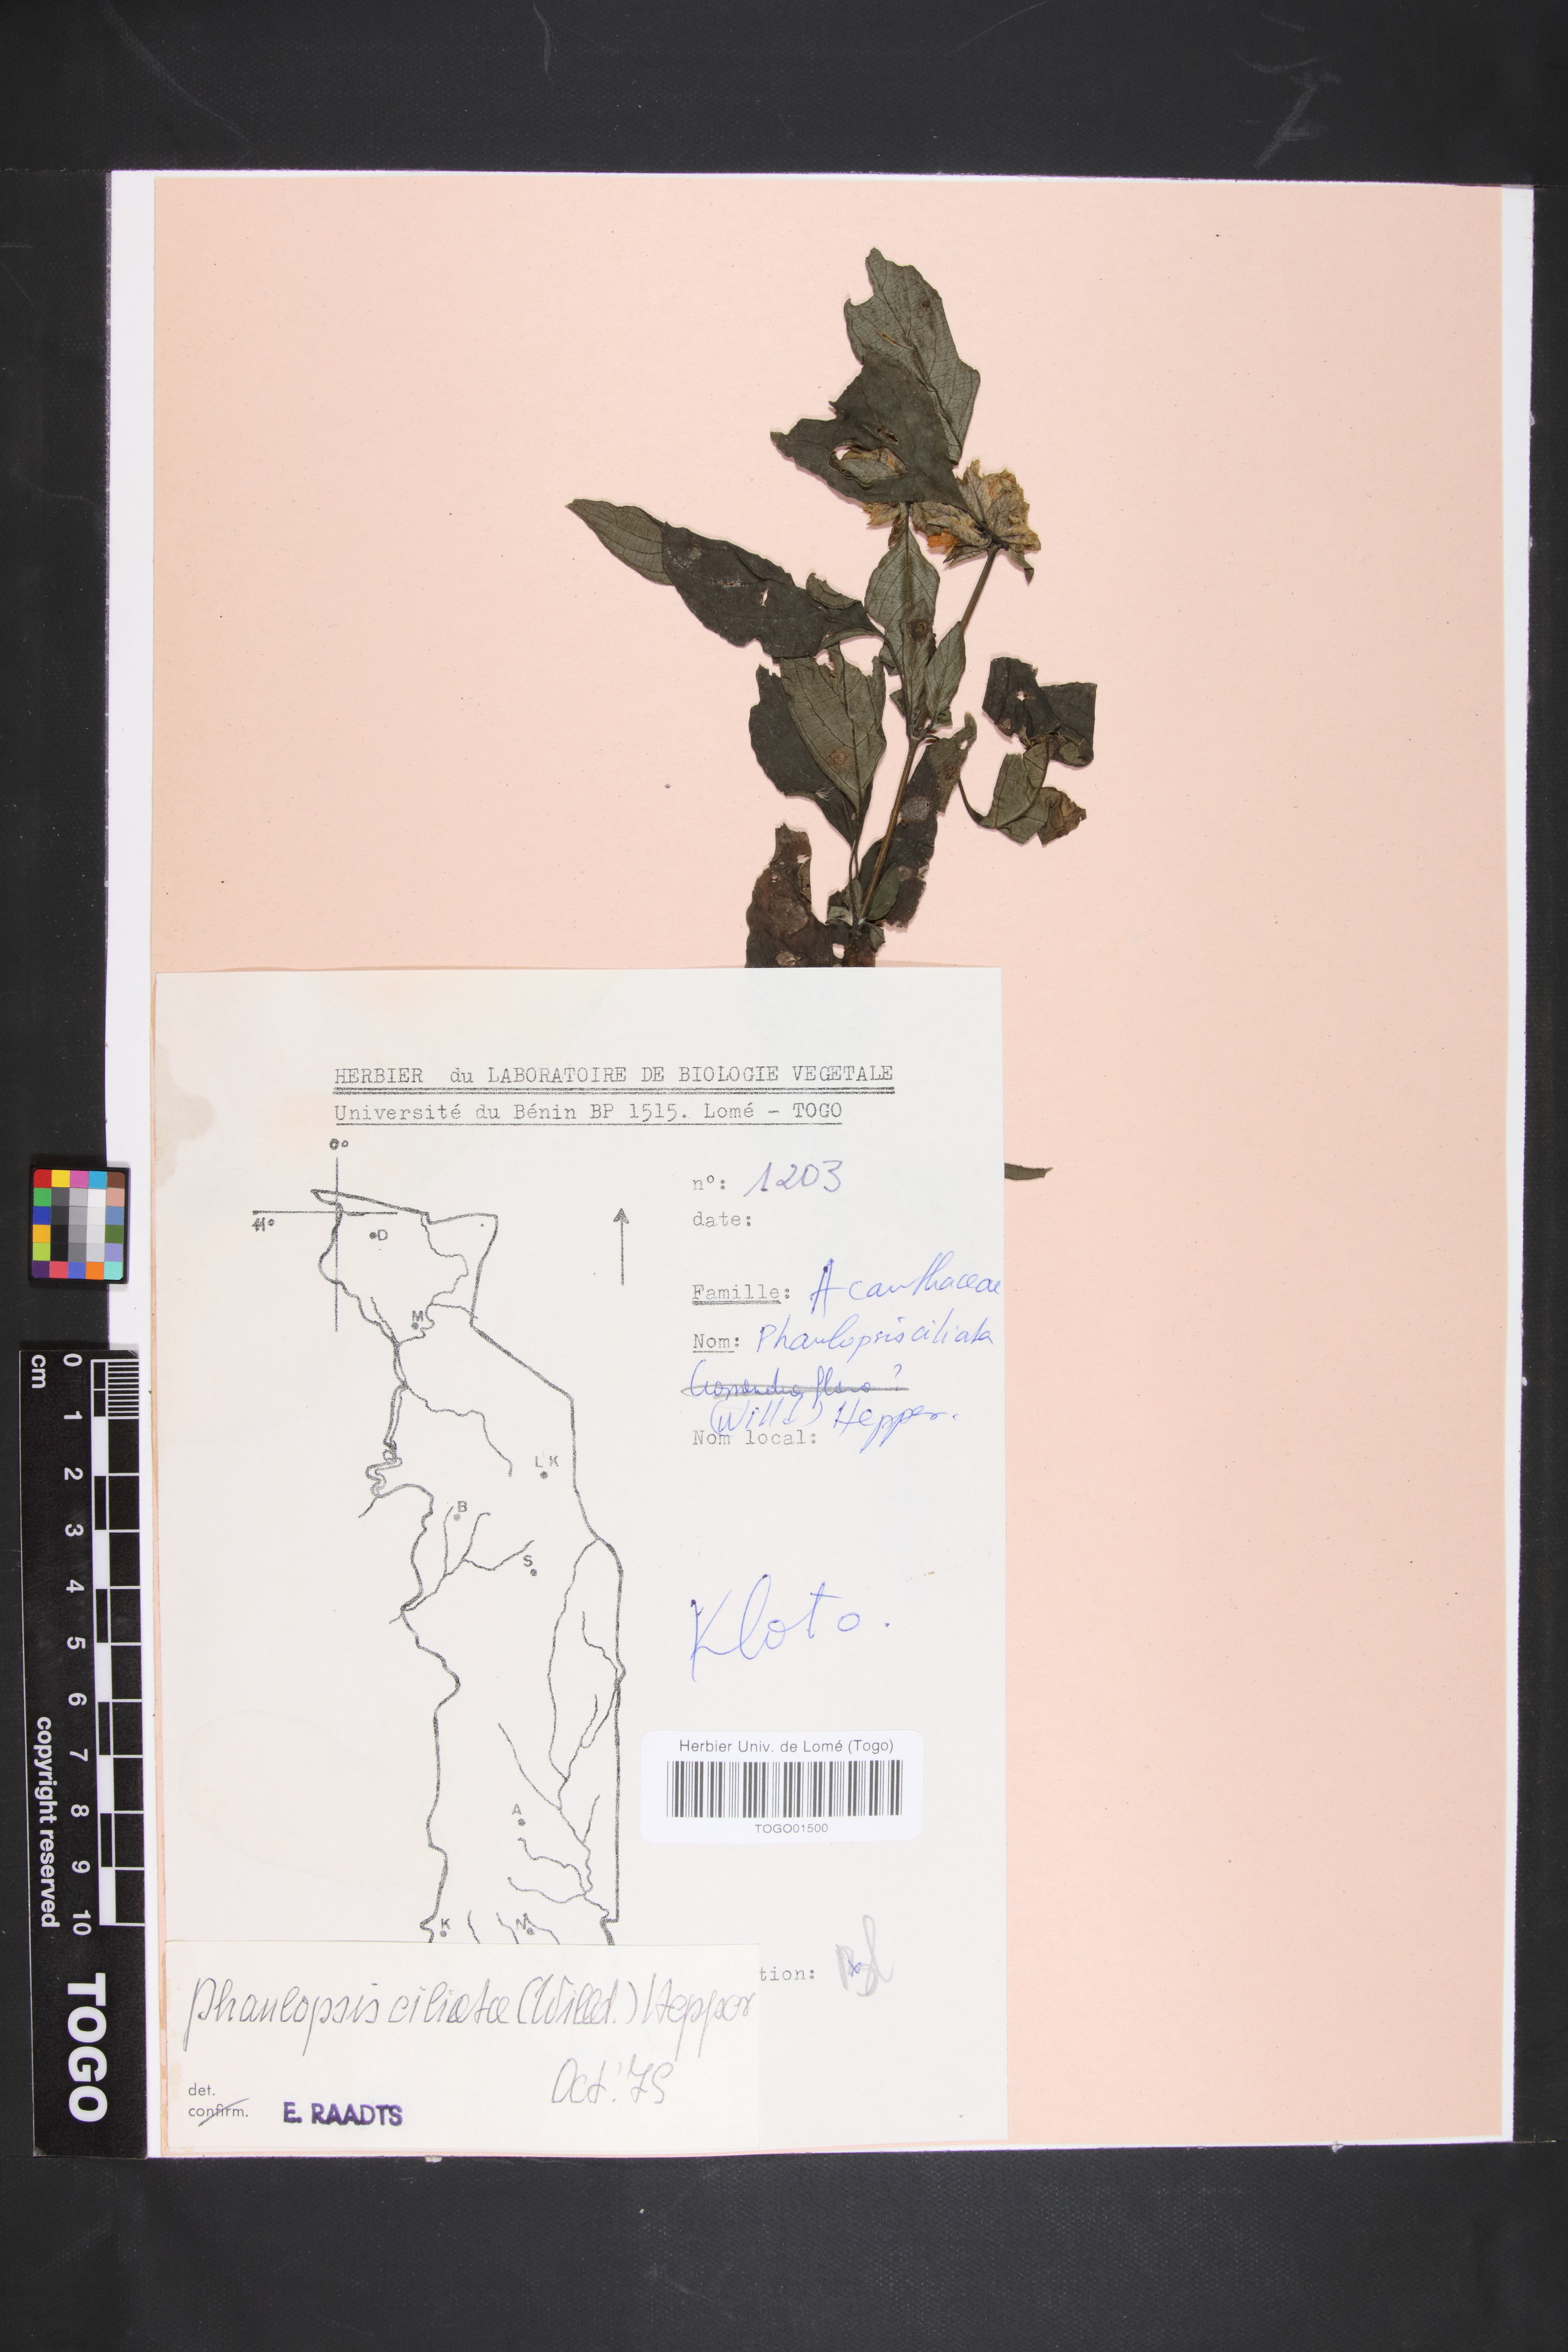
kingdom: Plantae
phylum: Tracheophyta
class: Magnoliopsida
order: Lamiales
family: Acanthaceae
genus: Phaulopsis
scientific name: Phaulopsis ciliata
